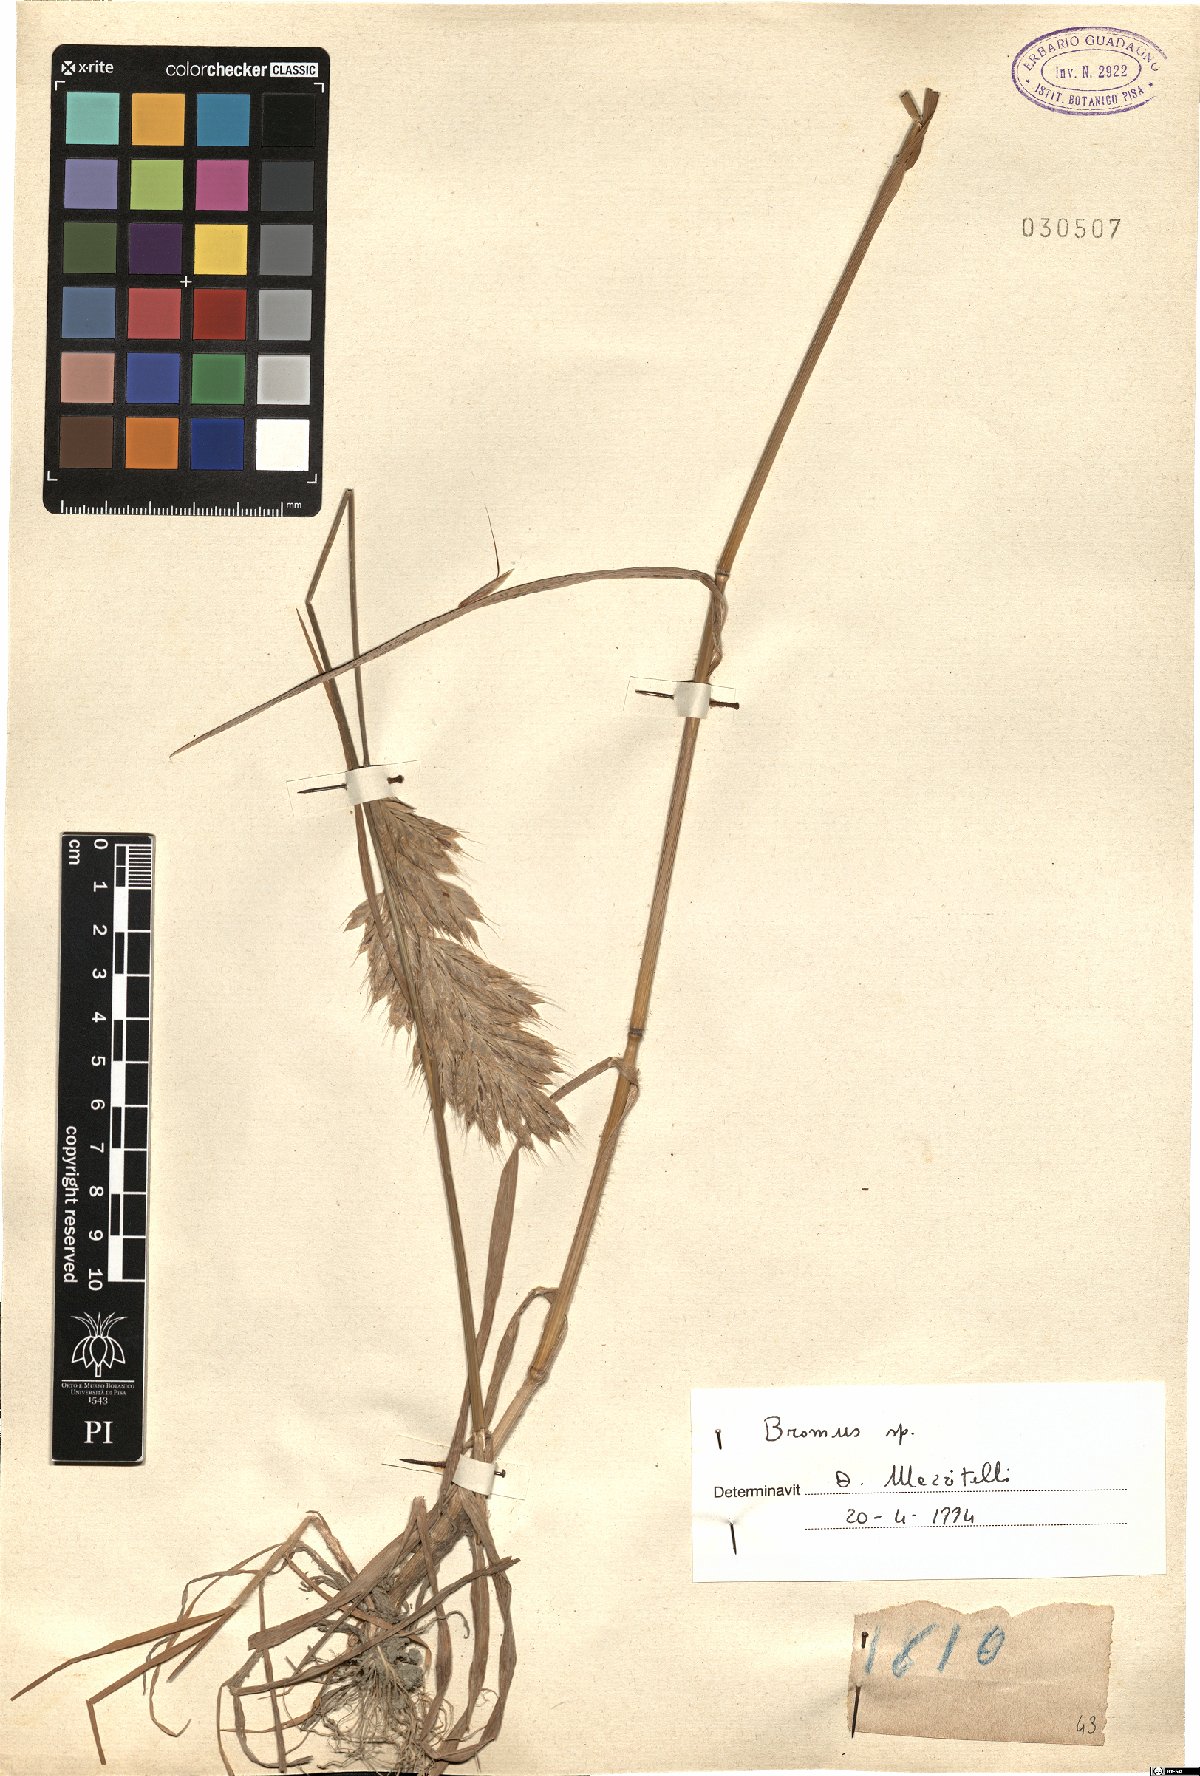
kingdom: Plantae
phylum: Tracheophyta
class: Liliopsida
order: Poales
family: Poaceae
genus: Bromus
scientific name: Bromus
